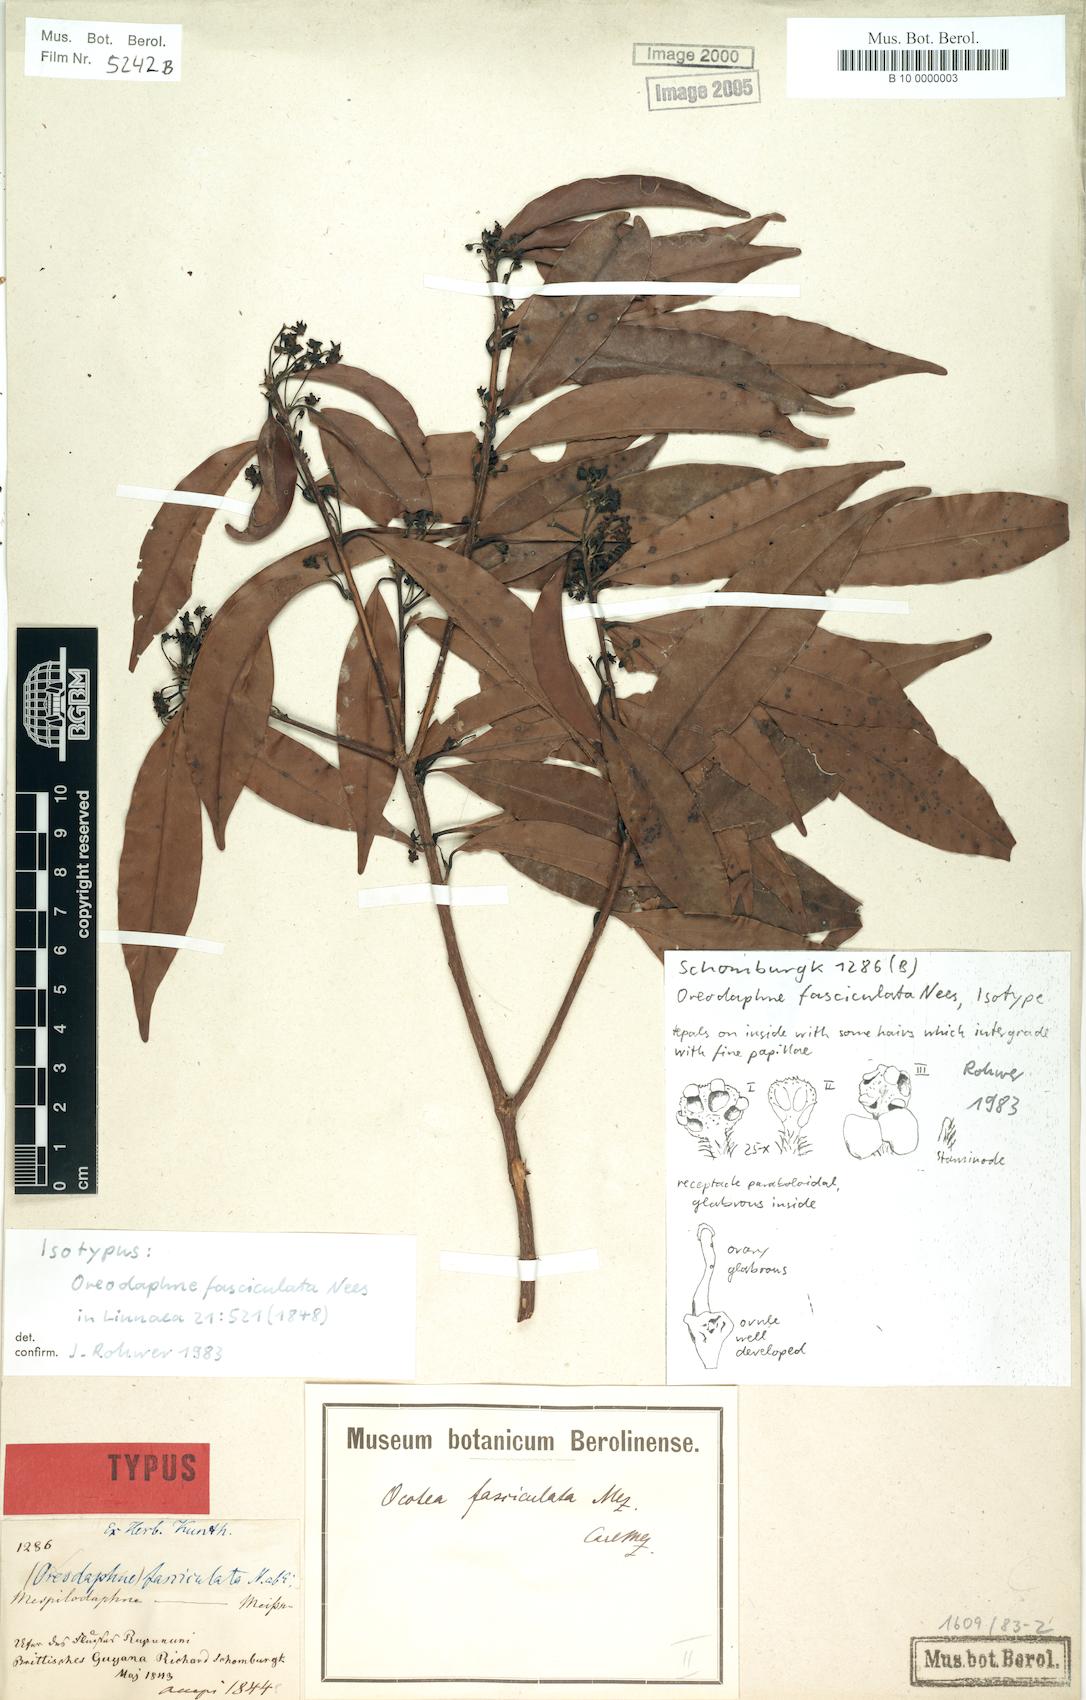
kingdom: Plantae
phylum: Tracheophyta
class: Magnoliopsida
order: Laurales
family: Lauraceae
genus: Mespilodaphne
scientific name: Mespilodaphne fasciculata
